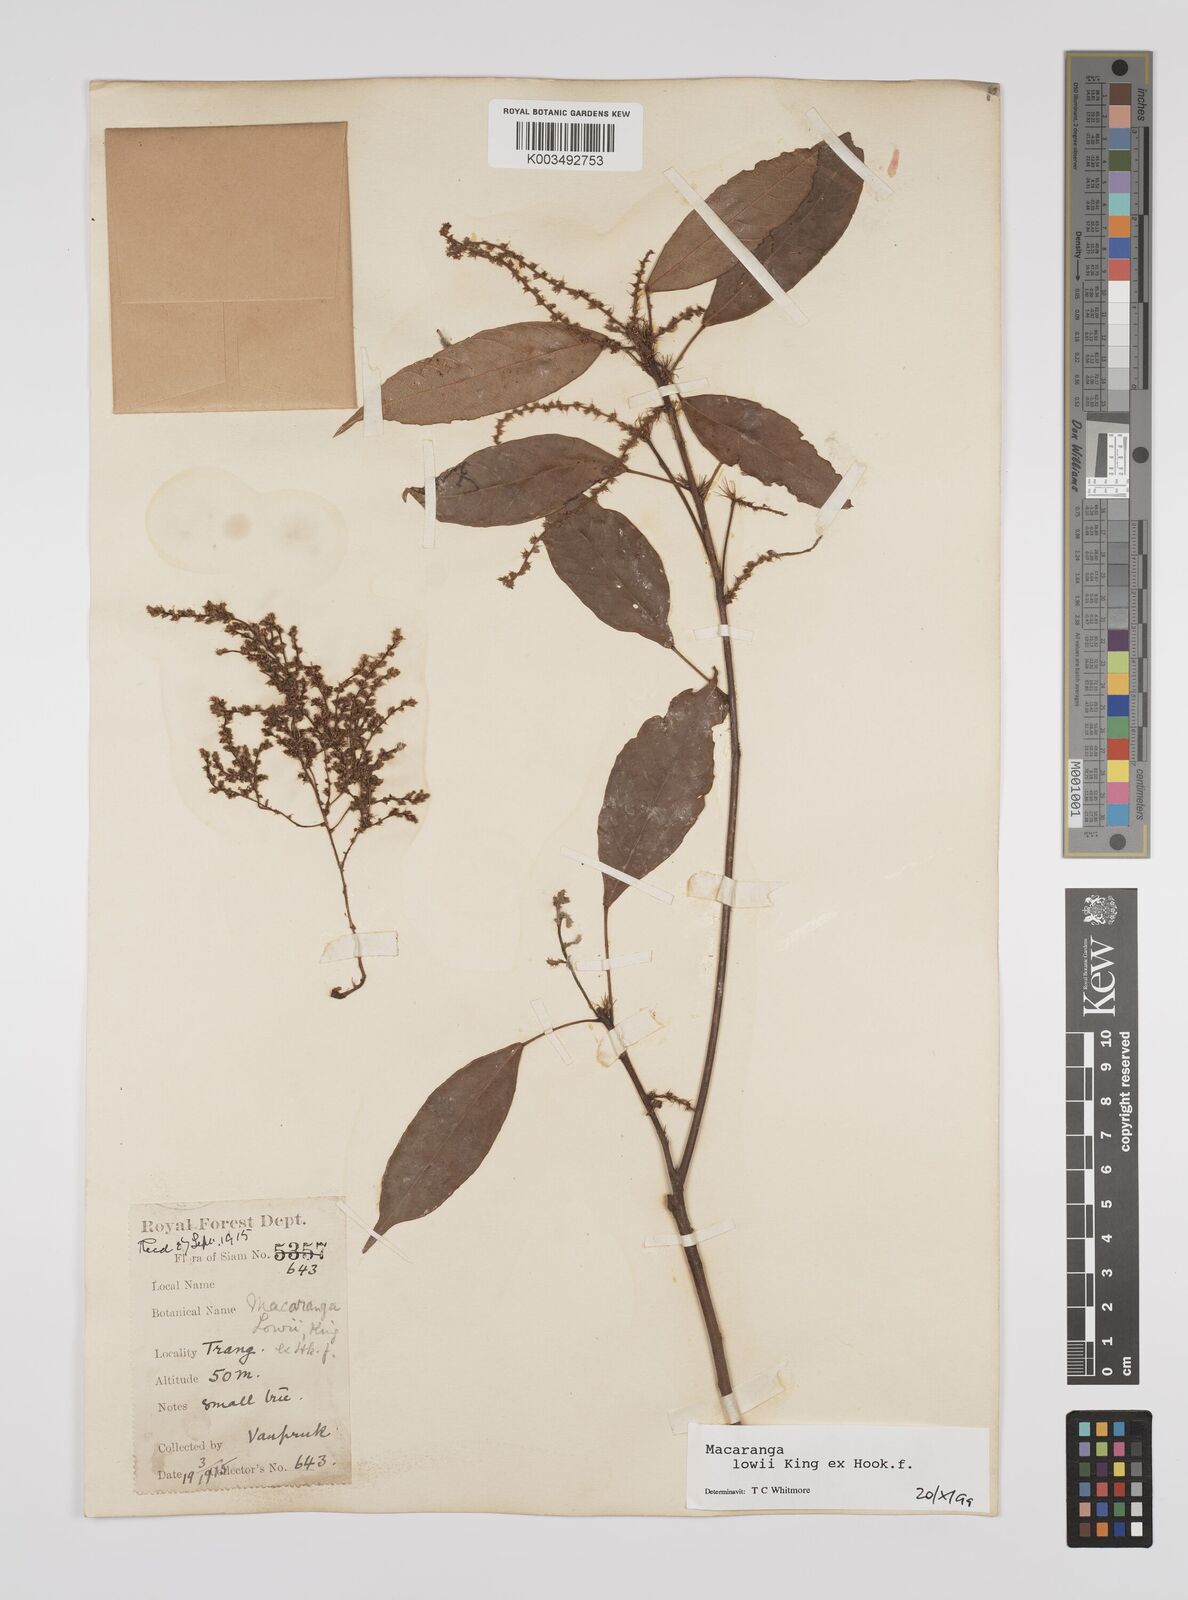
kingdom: Plantae
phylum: Tracheophyta
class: Magnoliopsida
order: Malpighiales
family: Euphorbiaceae
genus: Macaranga
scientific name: Macaranga lowii
